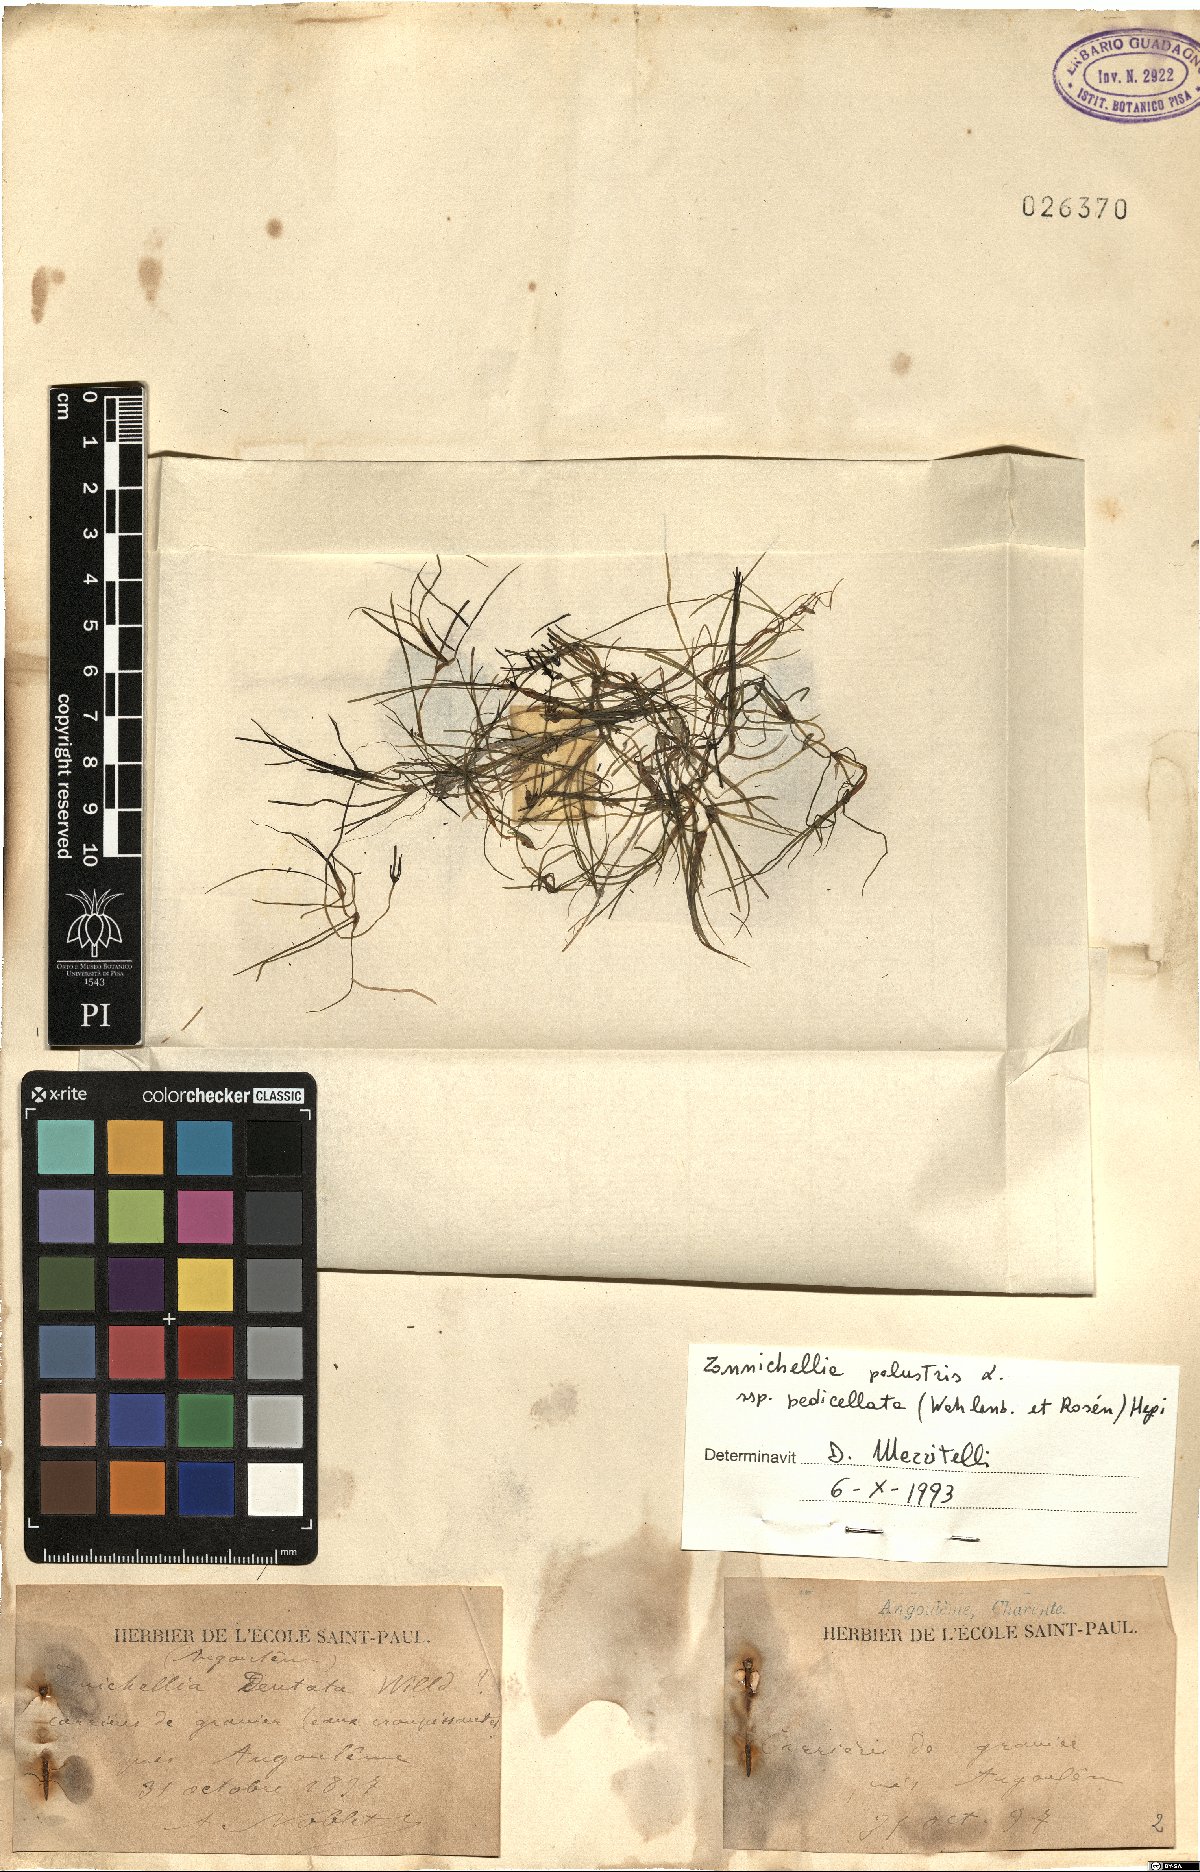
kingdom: Plantae
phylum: Tracheophyta
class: Liliopsida
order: Alismatales
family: Potamogetonaceae
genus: Zannichellia
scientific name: Zannichellia palustris
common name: Horned pondweed
